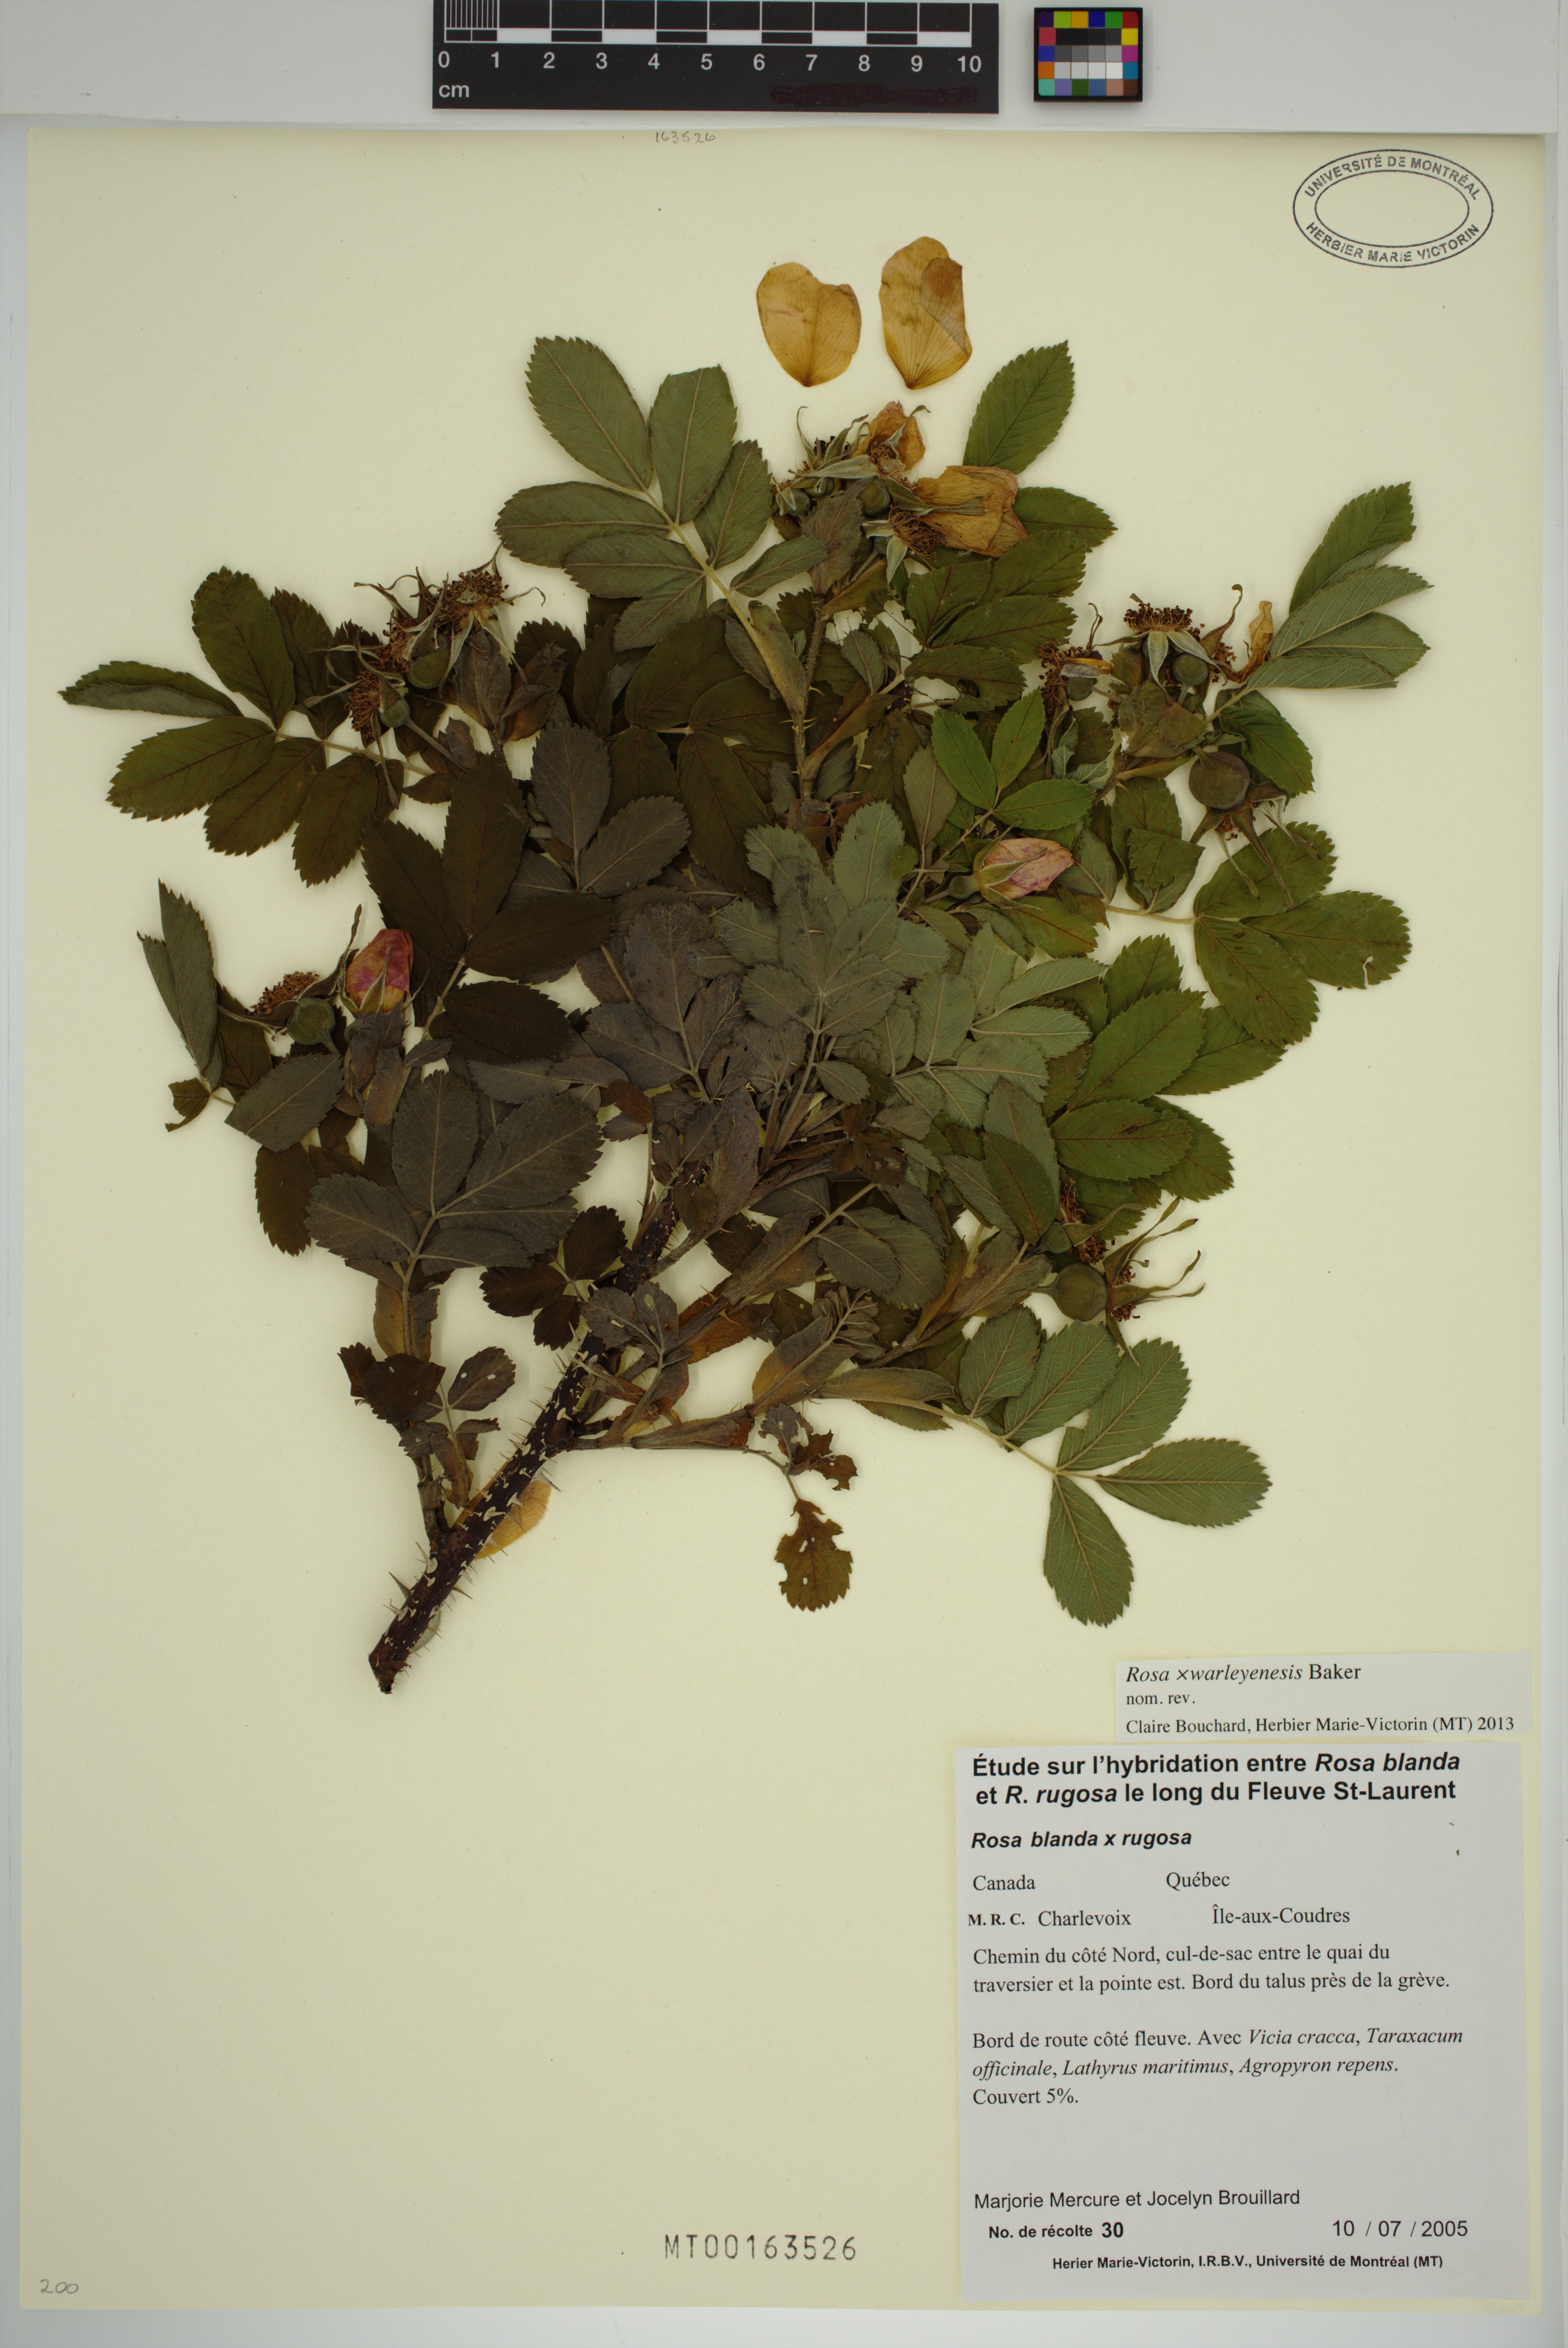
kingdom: Plantae
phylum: Tracheophyta
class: Magnoliopsida
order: Rosales
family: Rosaceae
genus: Rosa
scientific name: Rosa warleyensis
